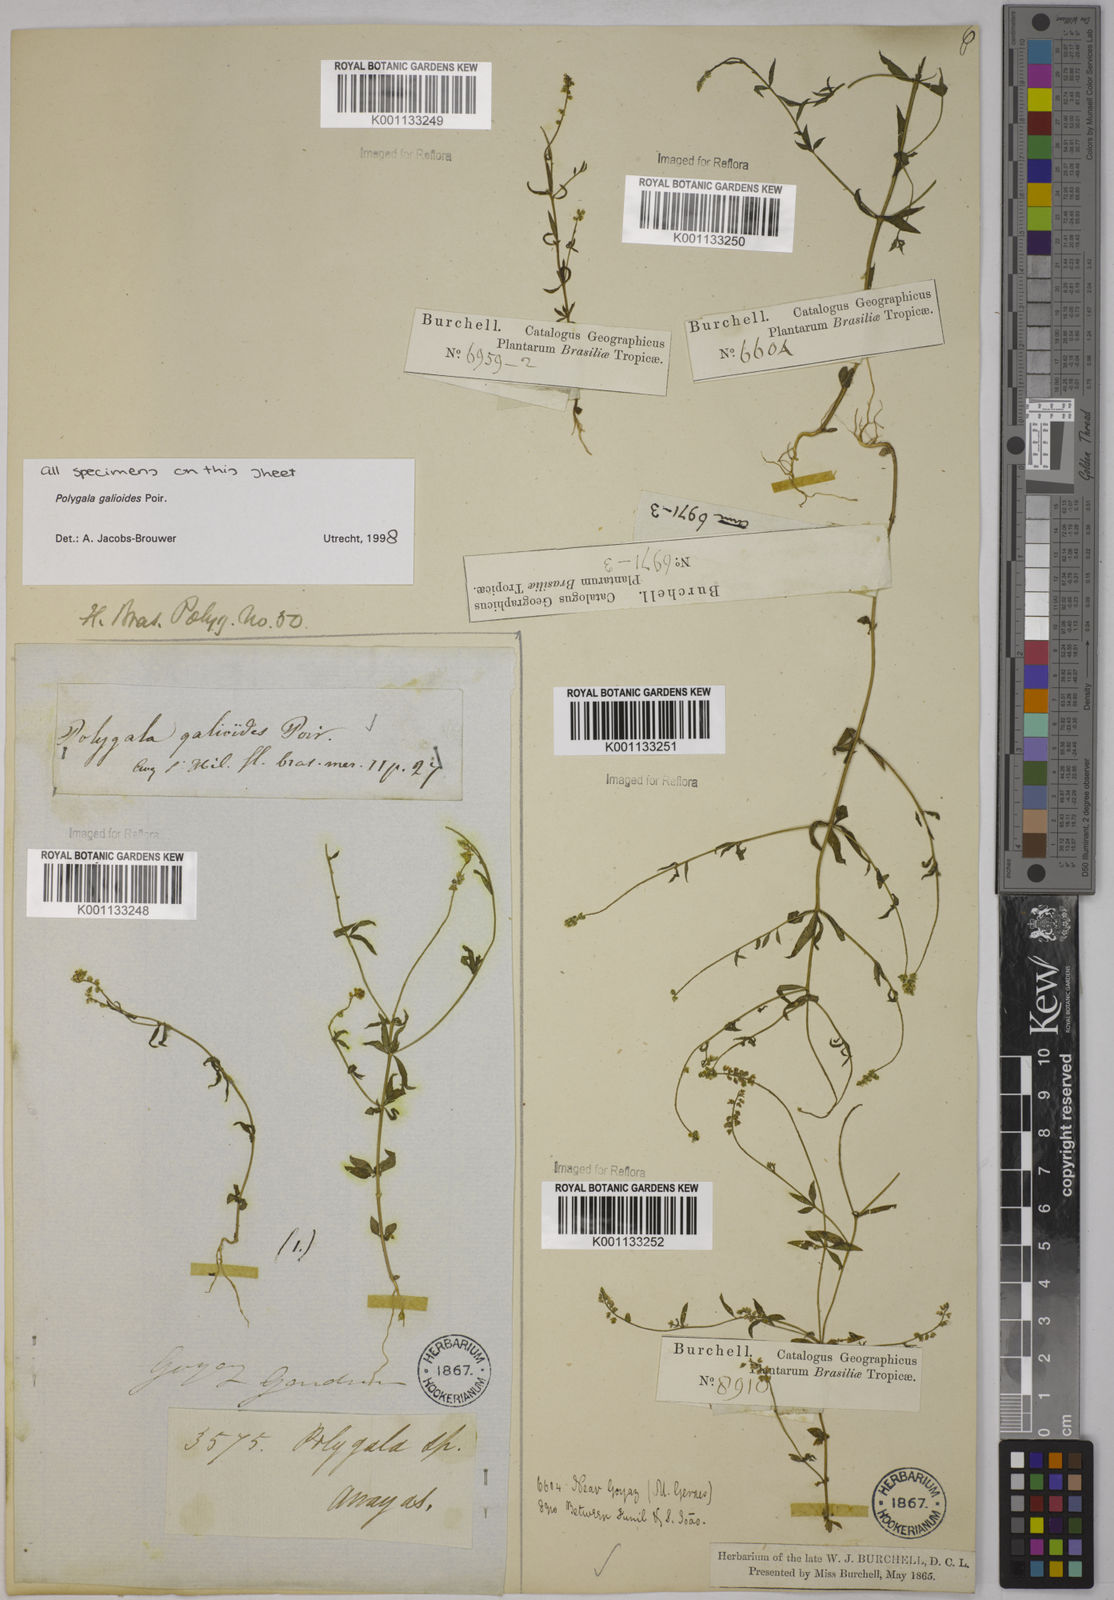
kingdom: Plantae
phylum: Tracheophyta
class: Magnoliopsida
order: Fabales
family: Polygalaceae
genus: Polygala
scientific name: Polygala galioides
